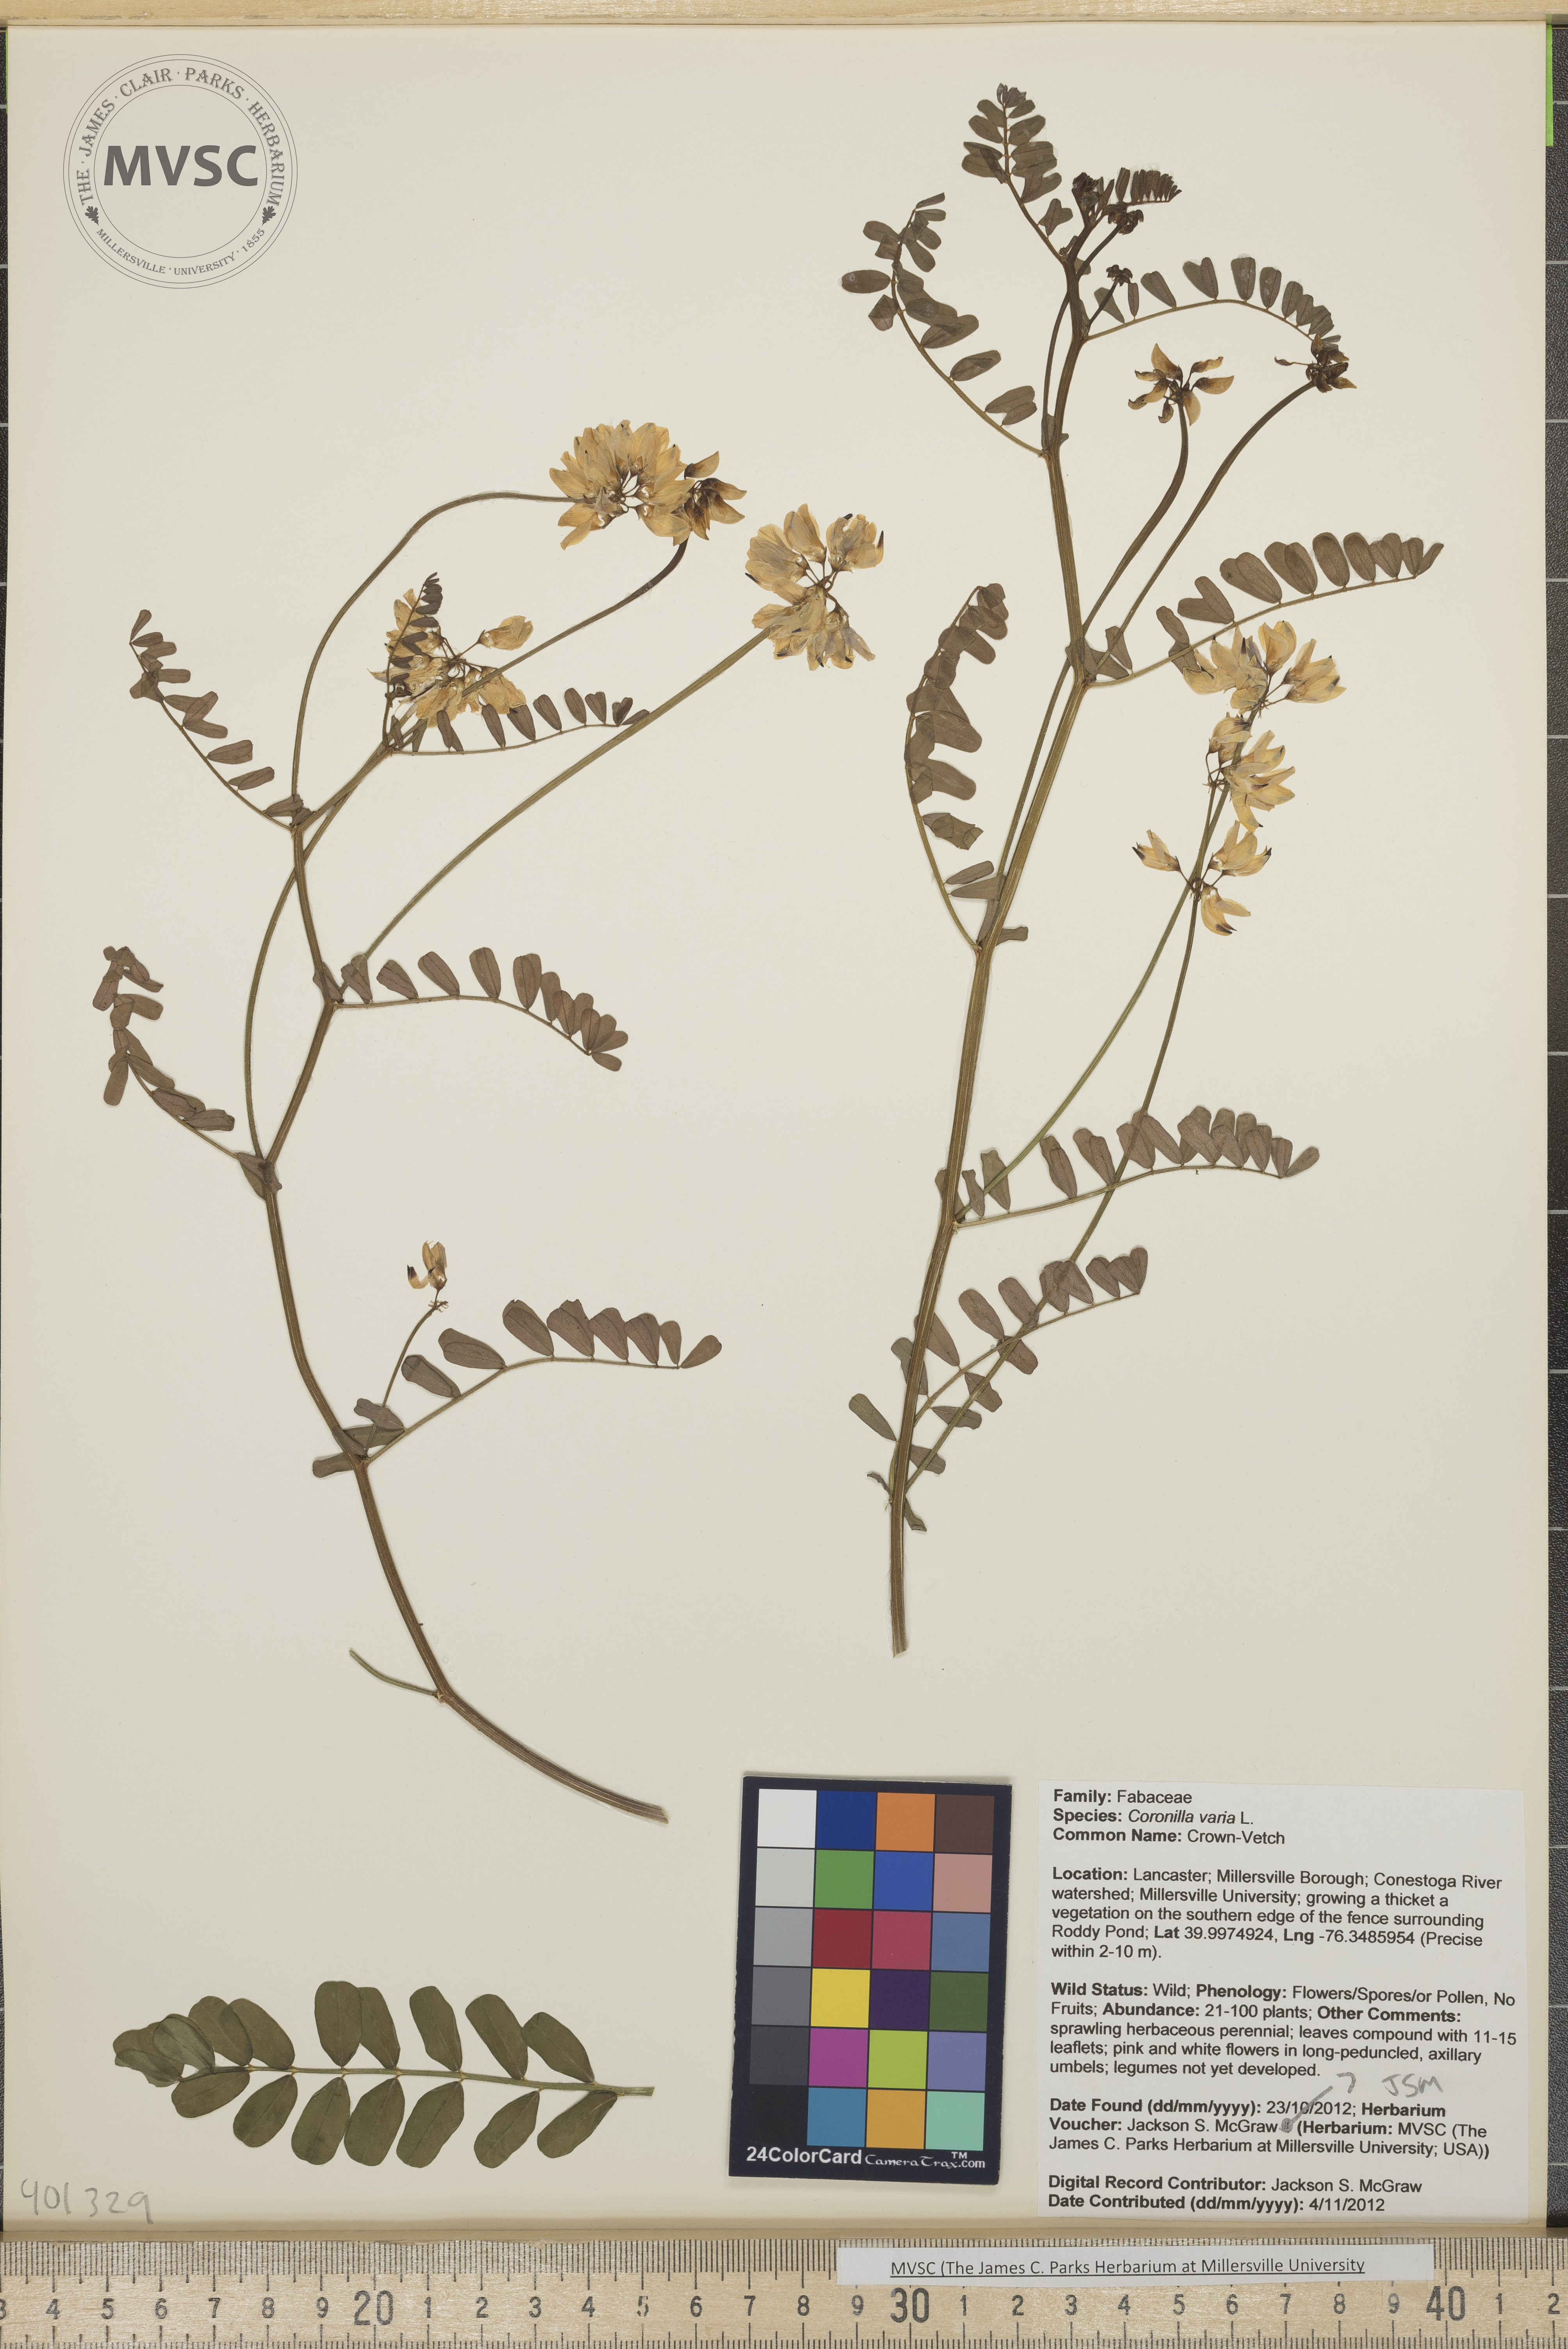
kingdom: Plantae
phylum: Tracheophyta
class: Magnoliopsida
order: Fabales
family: Fabaceae
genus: Coronilla
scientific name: Coronilla varia
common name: Crown-Vetch
